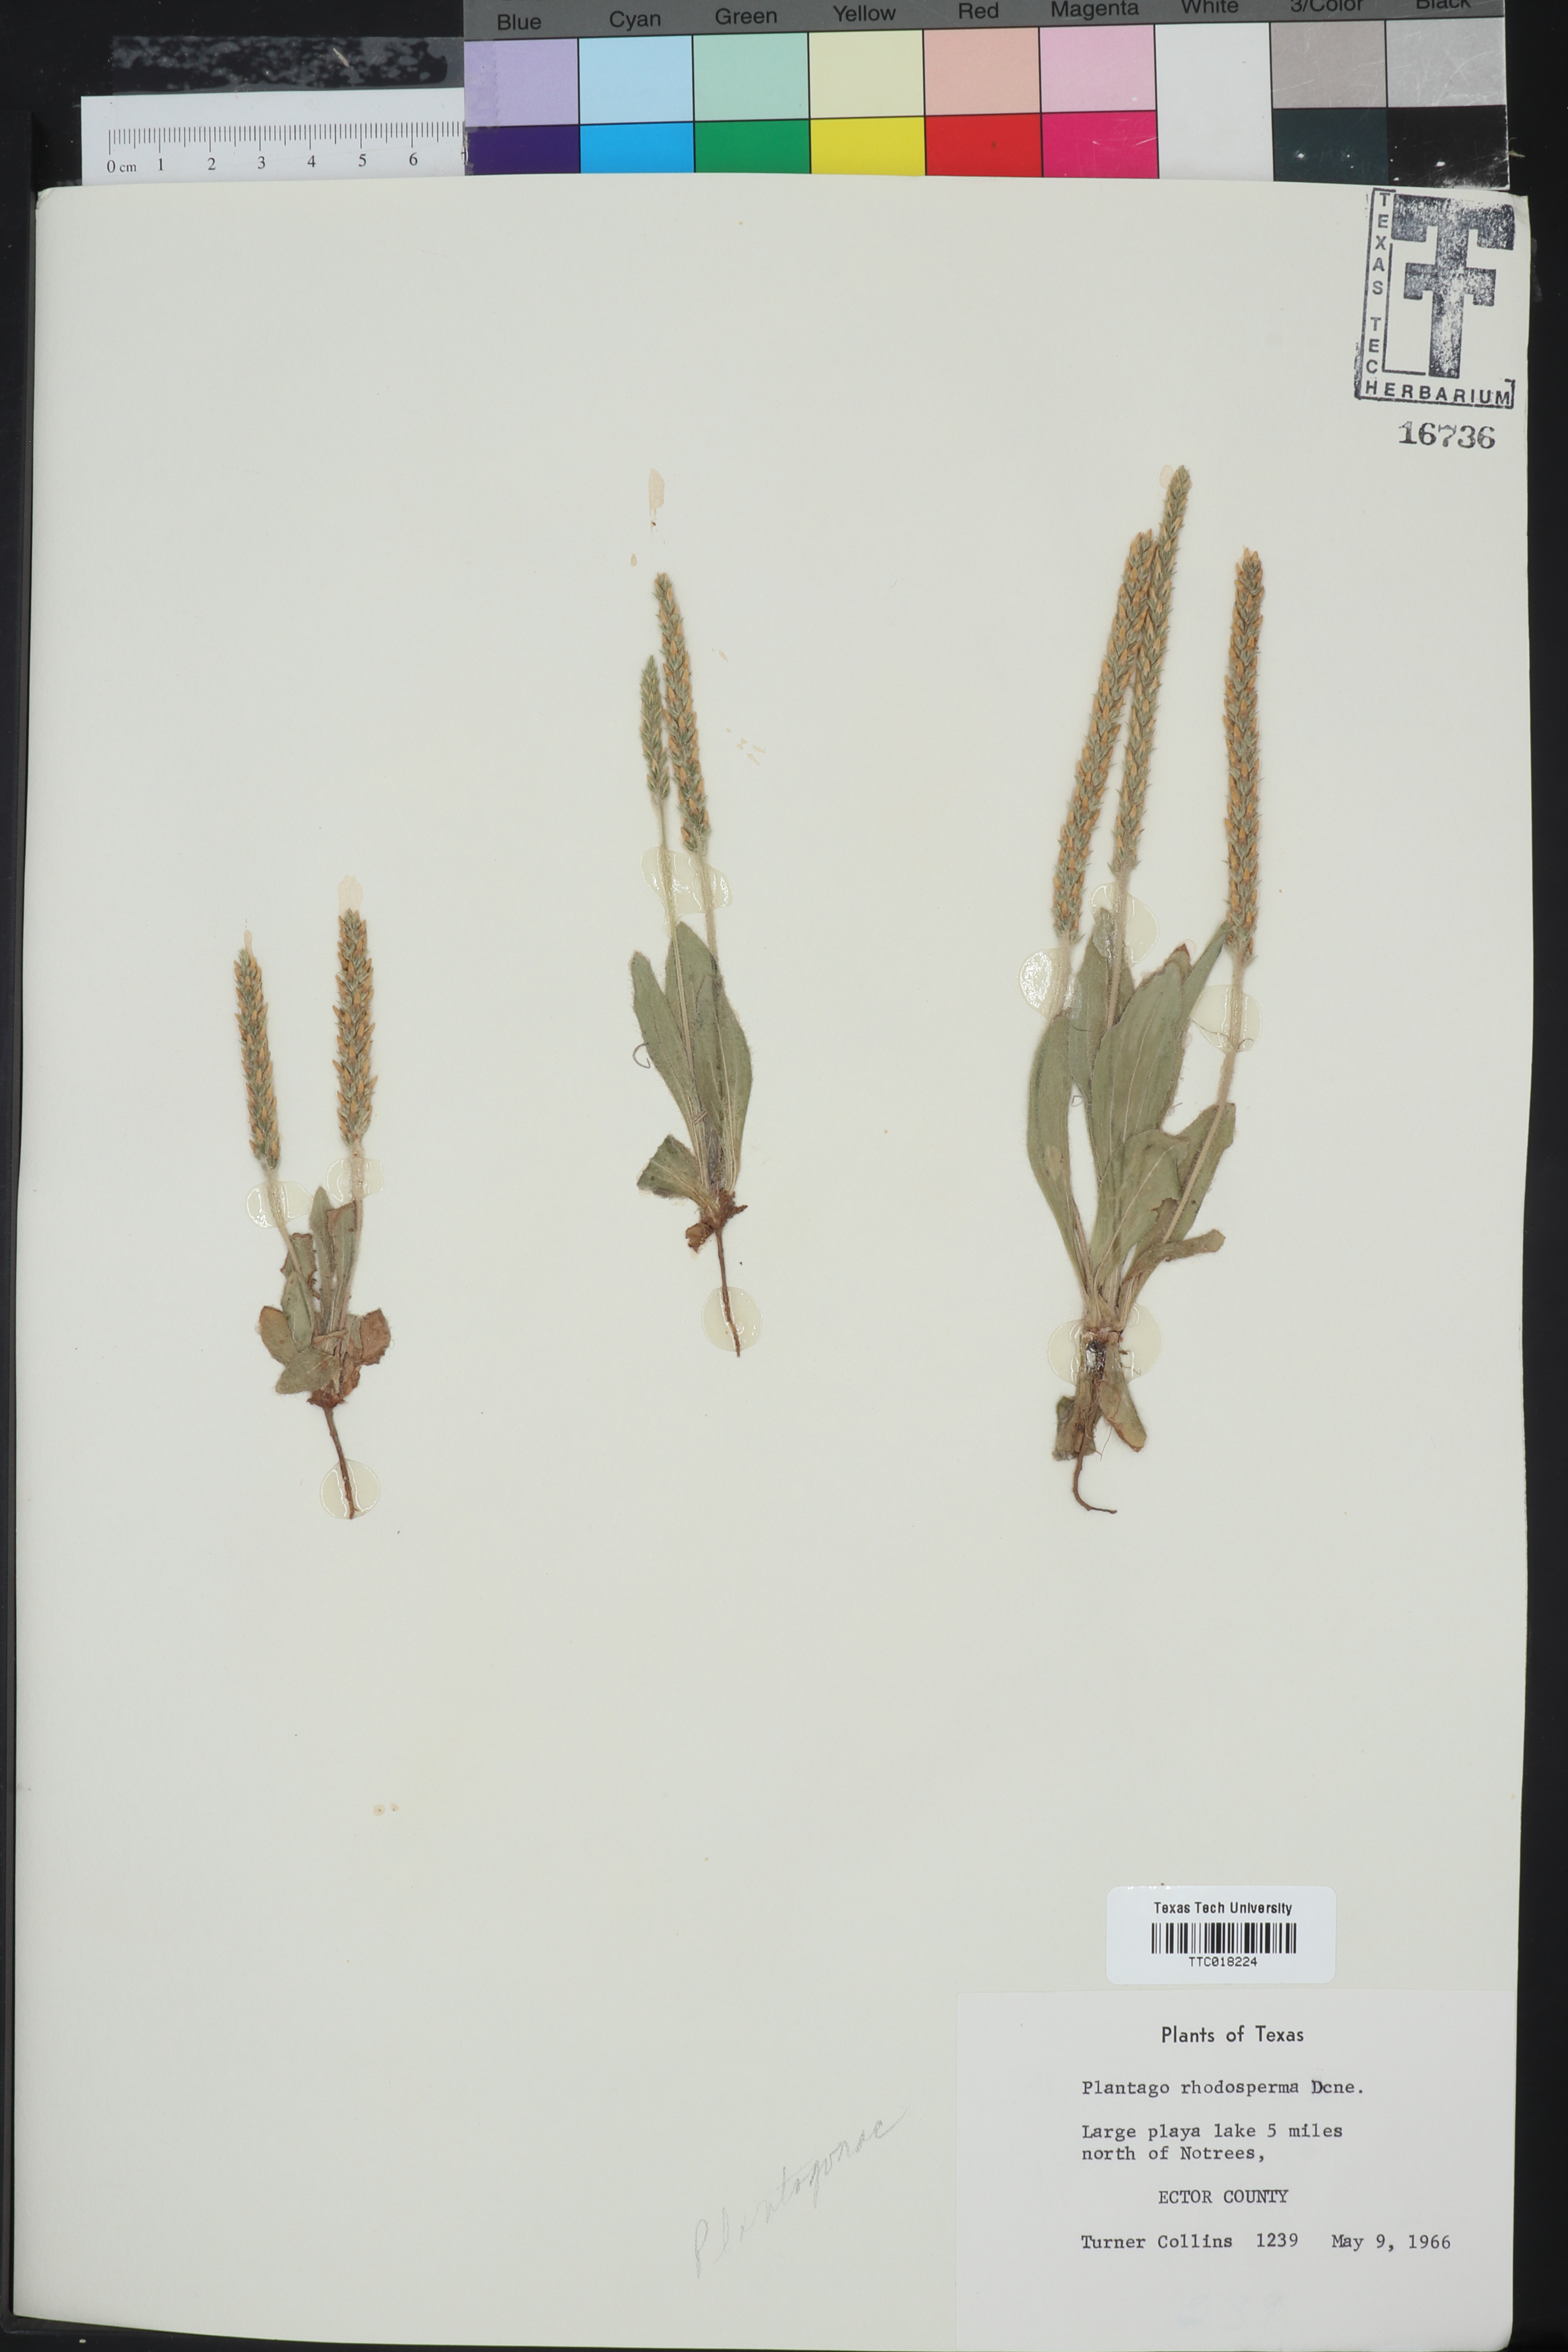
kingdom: Plantae
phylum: Tracheophyta
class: Magnoliopsida
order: Lamiales
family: Plantaginaceae
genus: Plantago
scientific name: Plantago rhodosperma
